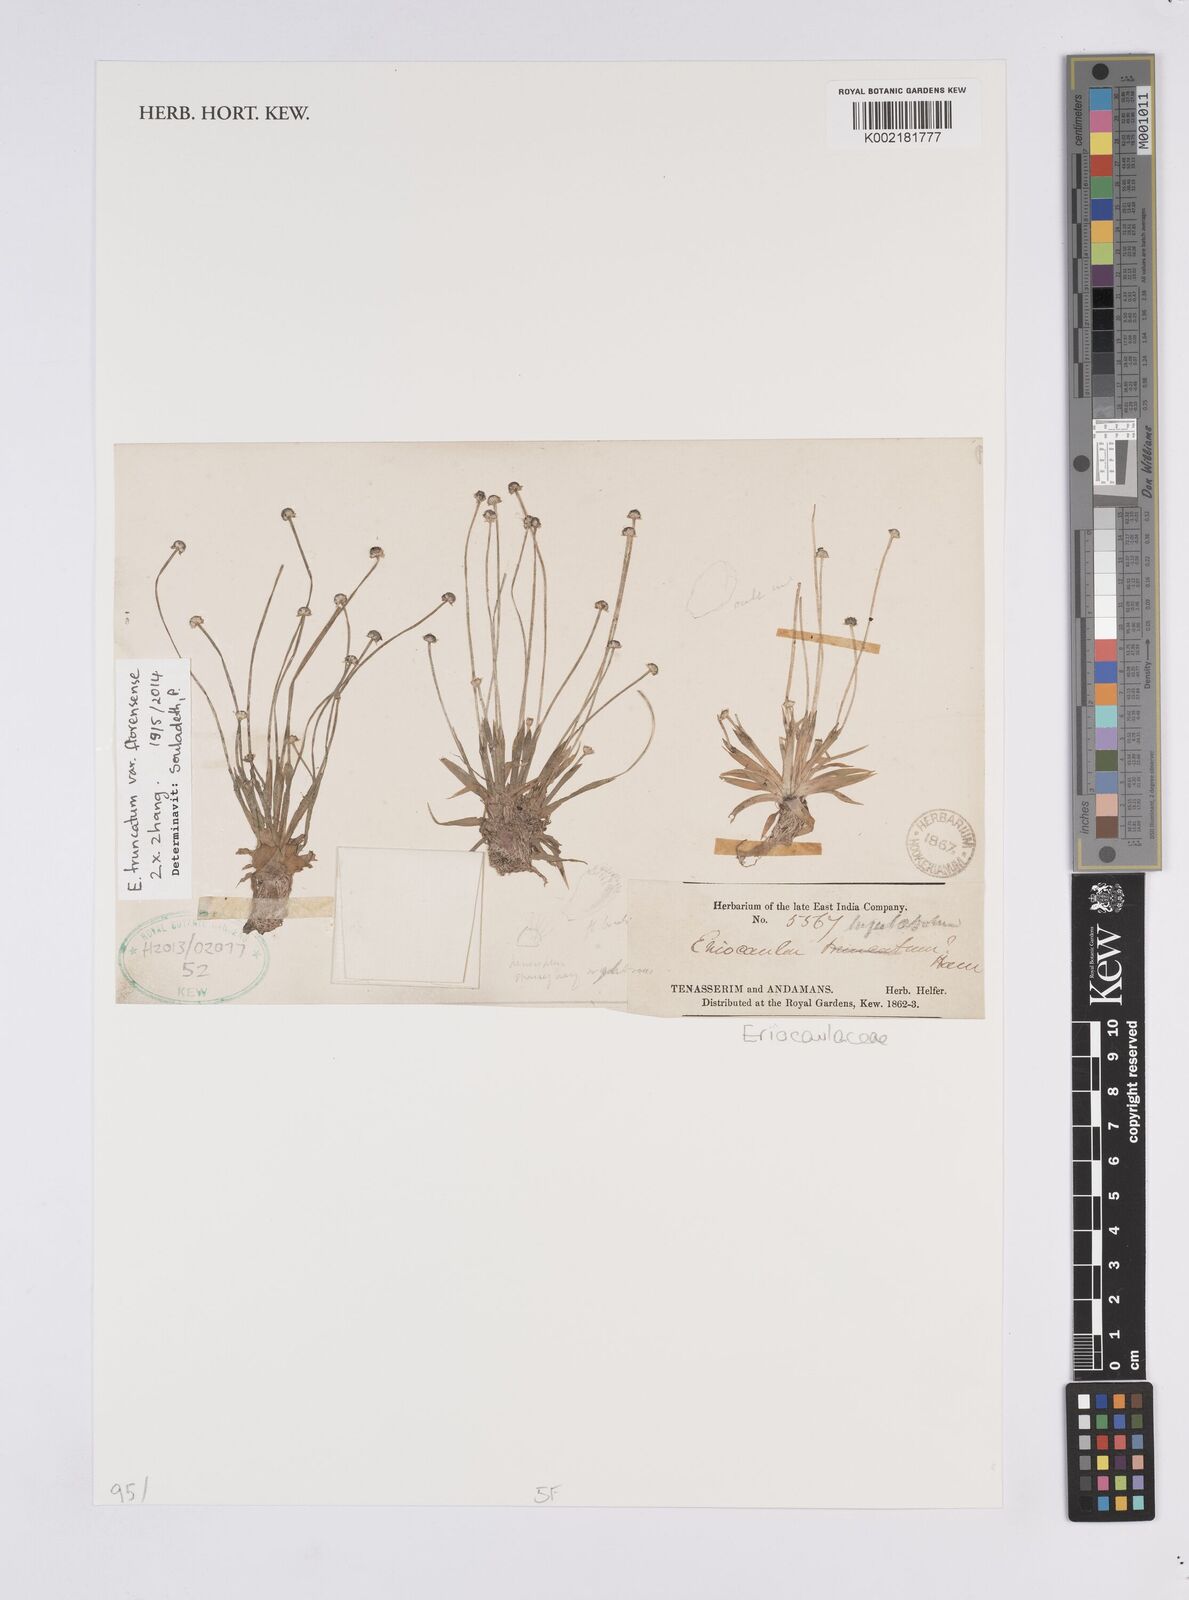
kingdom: Plantae
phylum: Tracheophyta
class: Liliopsida
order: Poales
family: Eriocaulaceae
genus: Eriocaulon
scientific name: Eriocaulon truncatum
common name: Short pipe-wort
